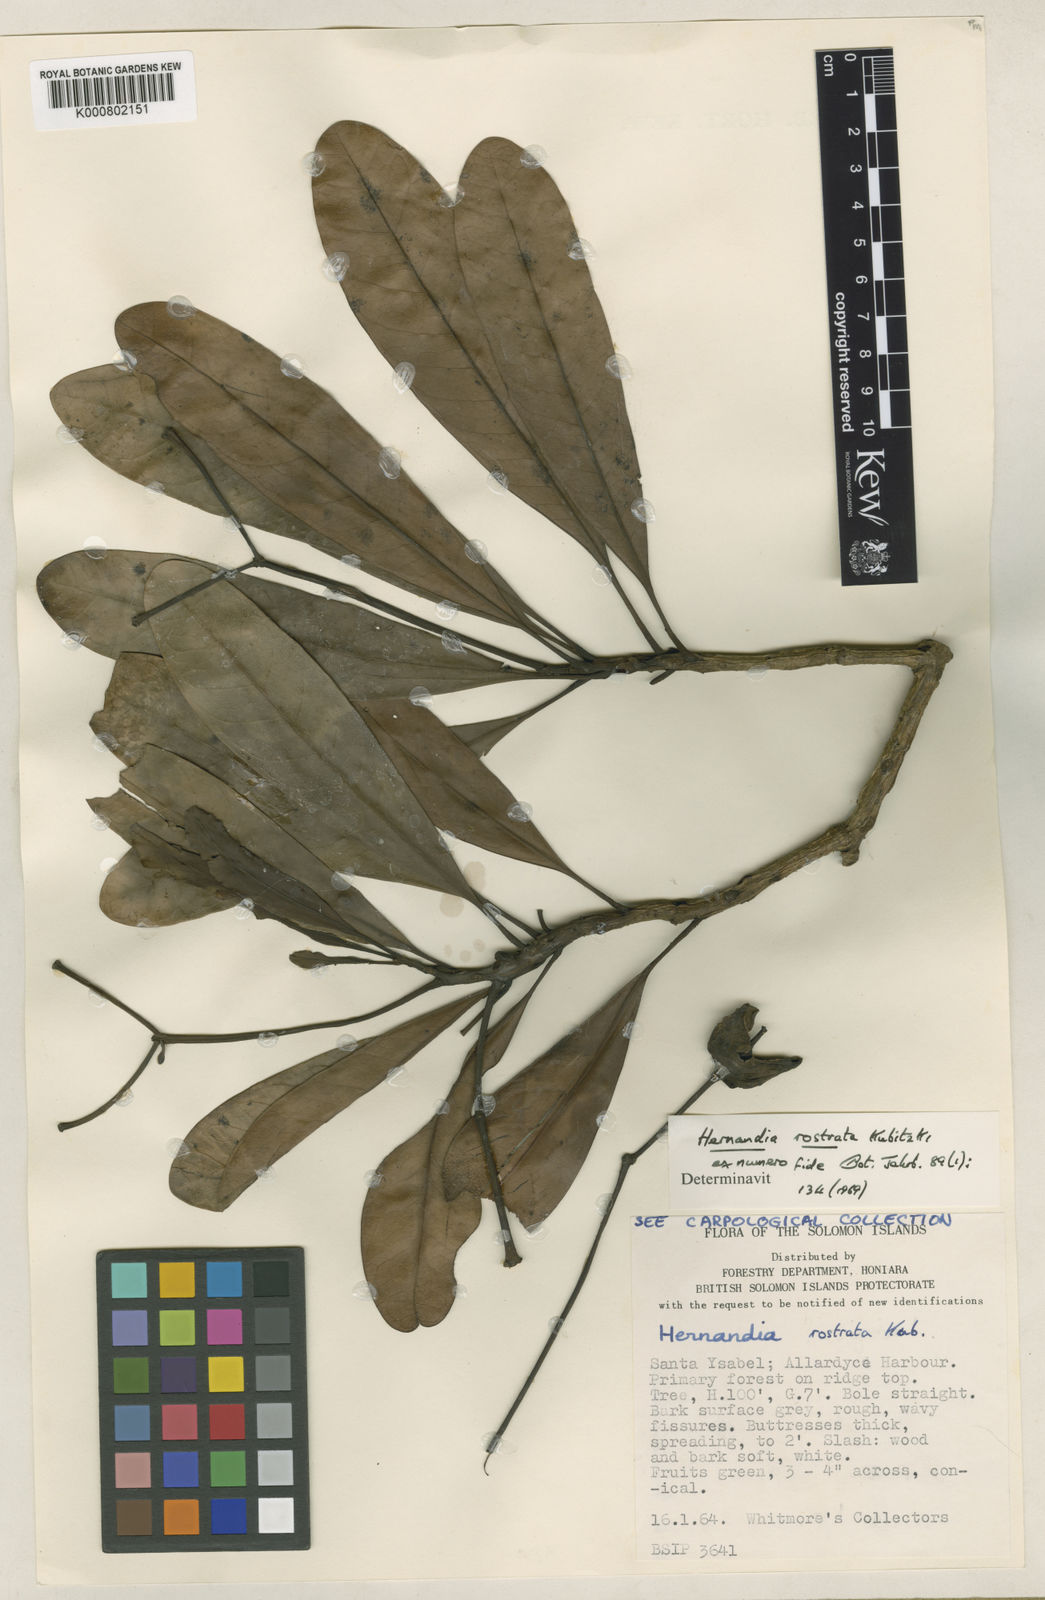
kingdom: Plantae
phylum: Tracheophyta
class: Magnoliopsida
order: Laurales
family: Hernandiaceae
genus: Hernandia
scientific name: Hernandia rostrata
